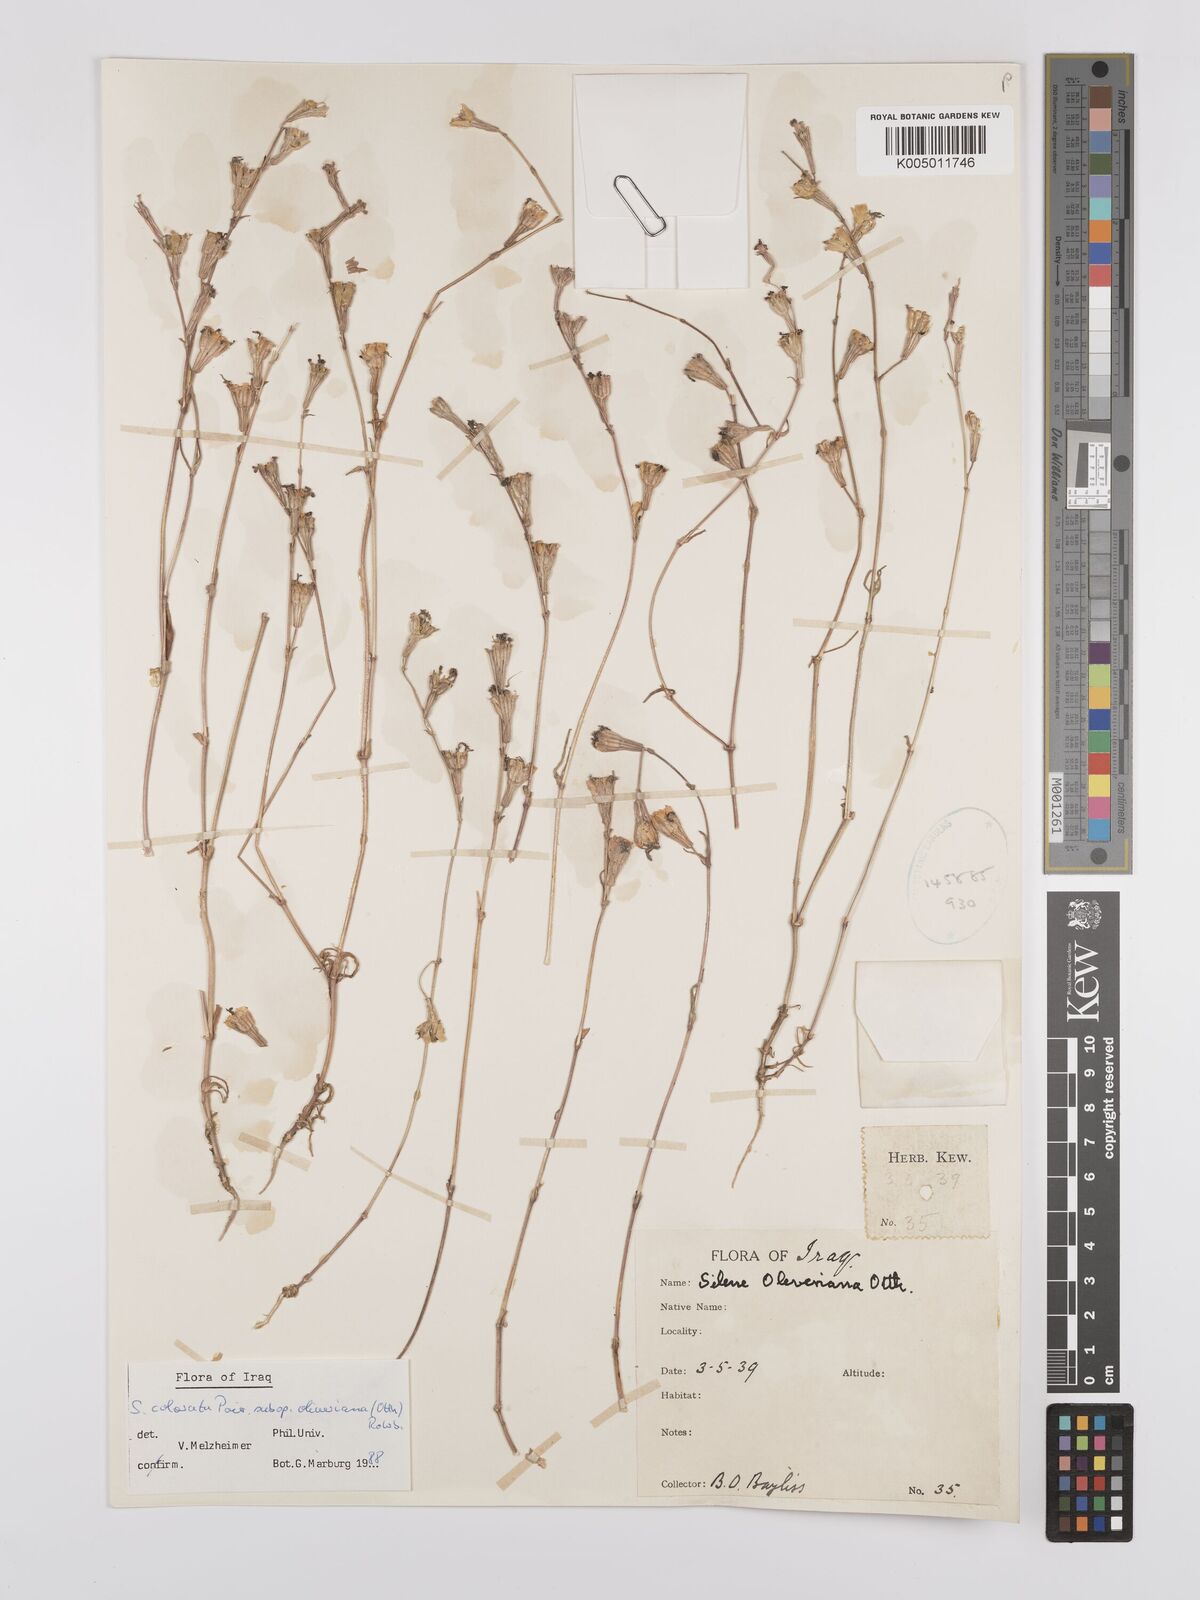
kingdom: Plantae
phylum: Tracheophyta
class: Magnoliopsida
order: Caryophyllales
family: Caryophyllaceae
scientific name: Caryophyllaceae
